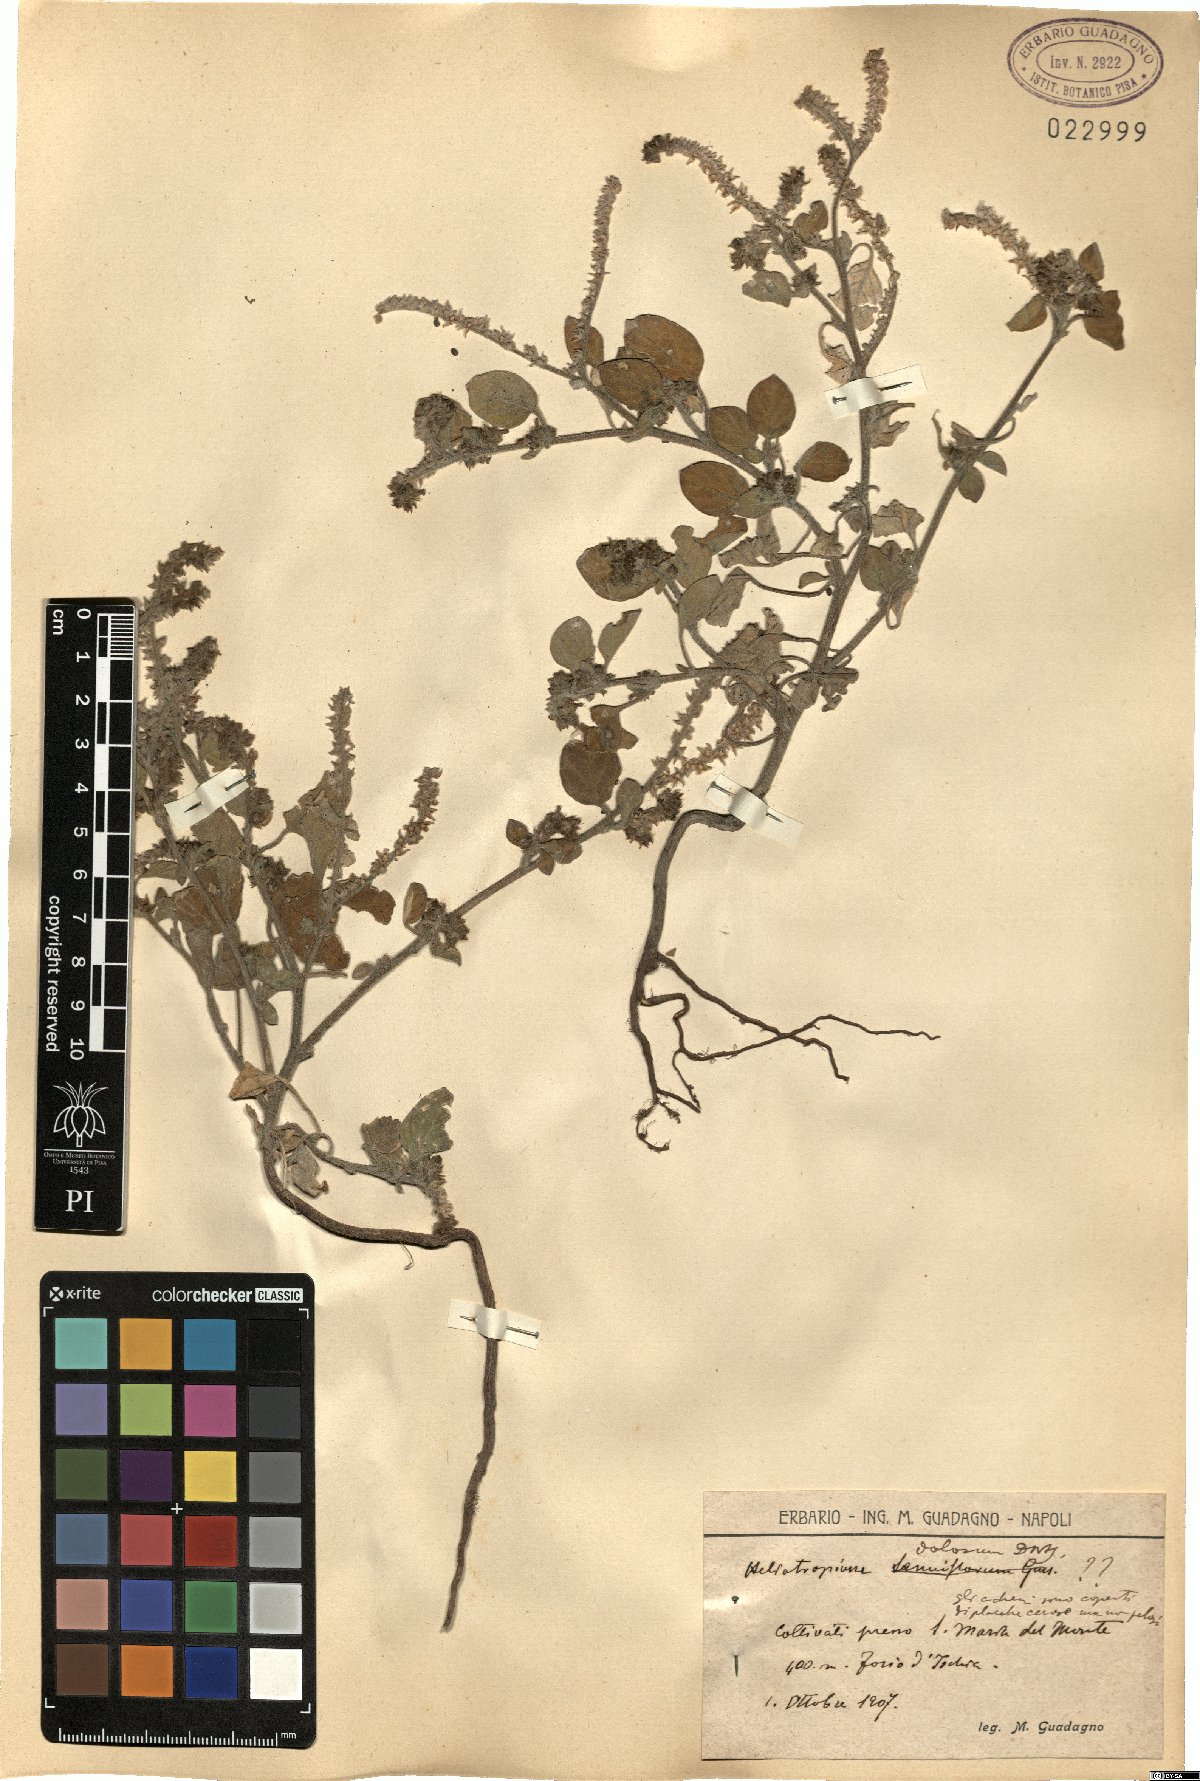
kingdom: Plantae
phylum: Tracheophyta
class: Magnoliopsida
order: Boraginales
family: Heliotropiaceae
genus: Heliotropium
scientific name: Heliotropium dolosum
